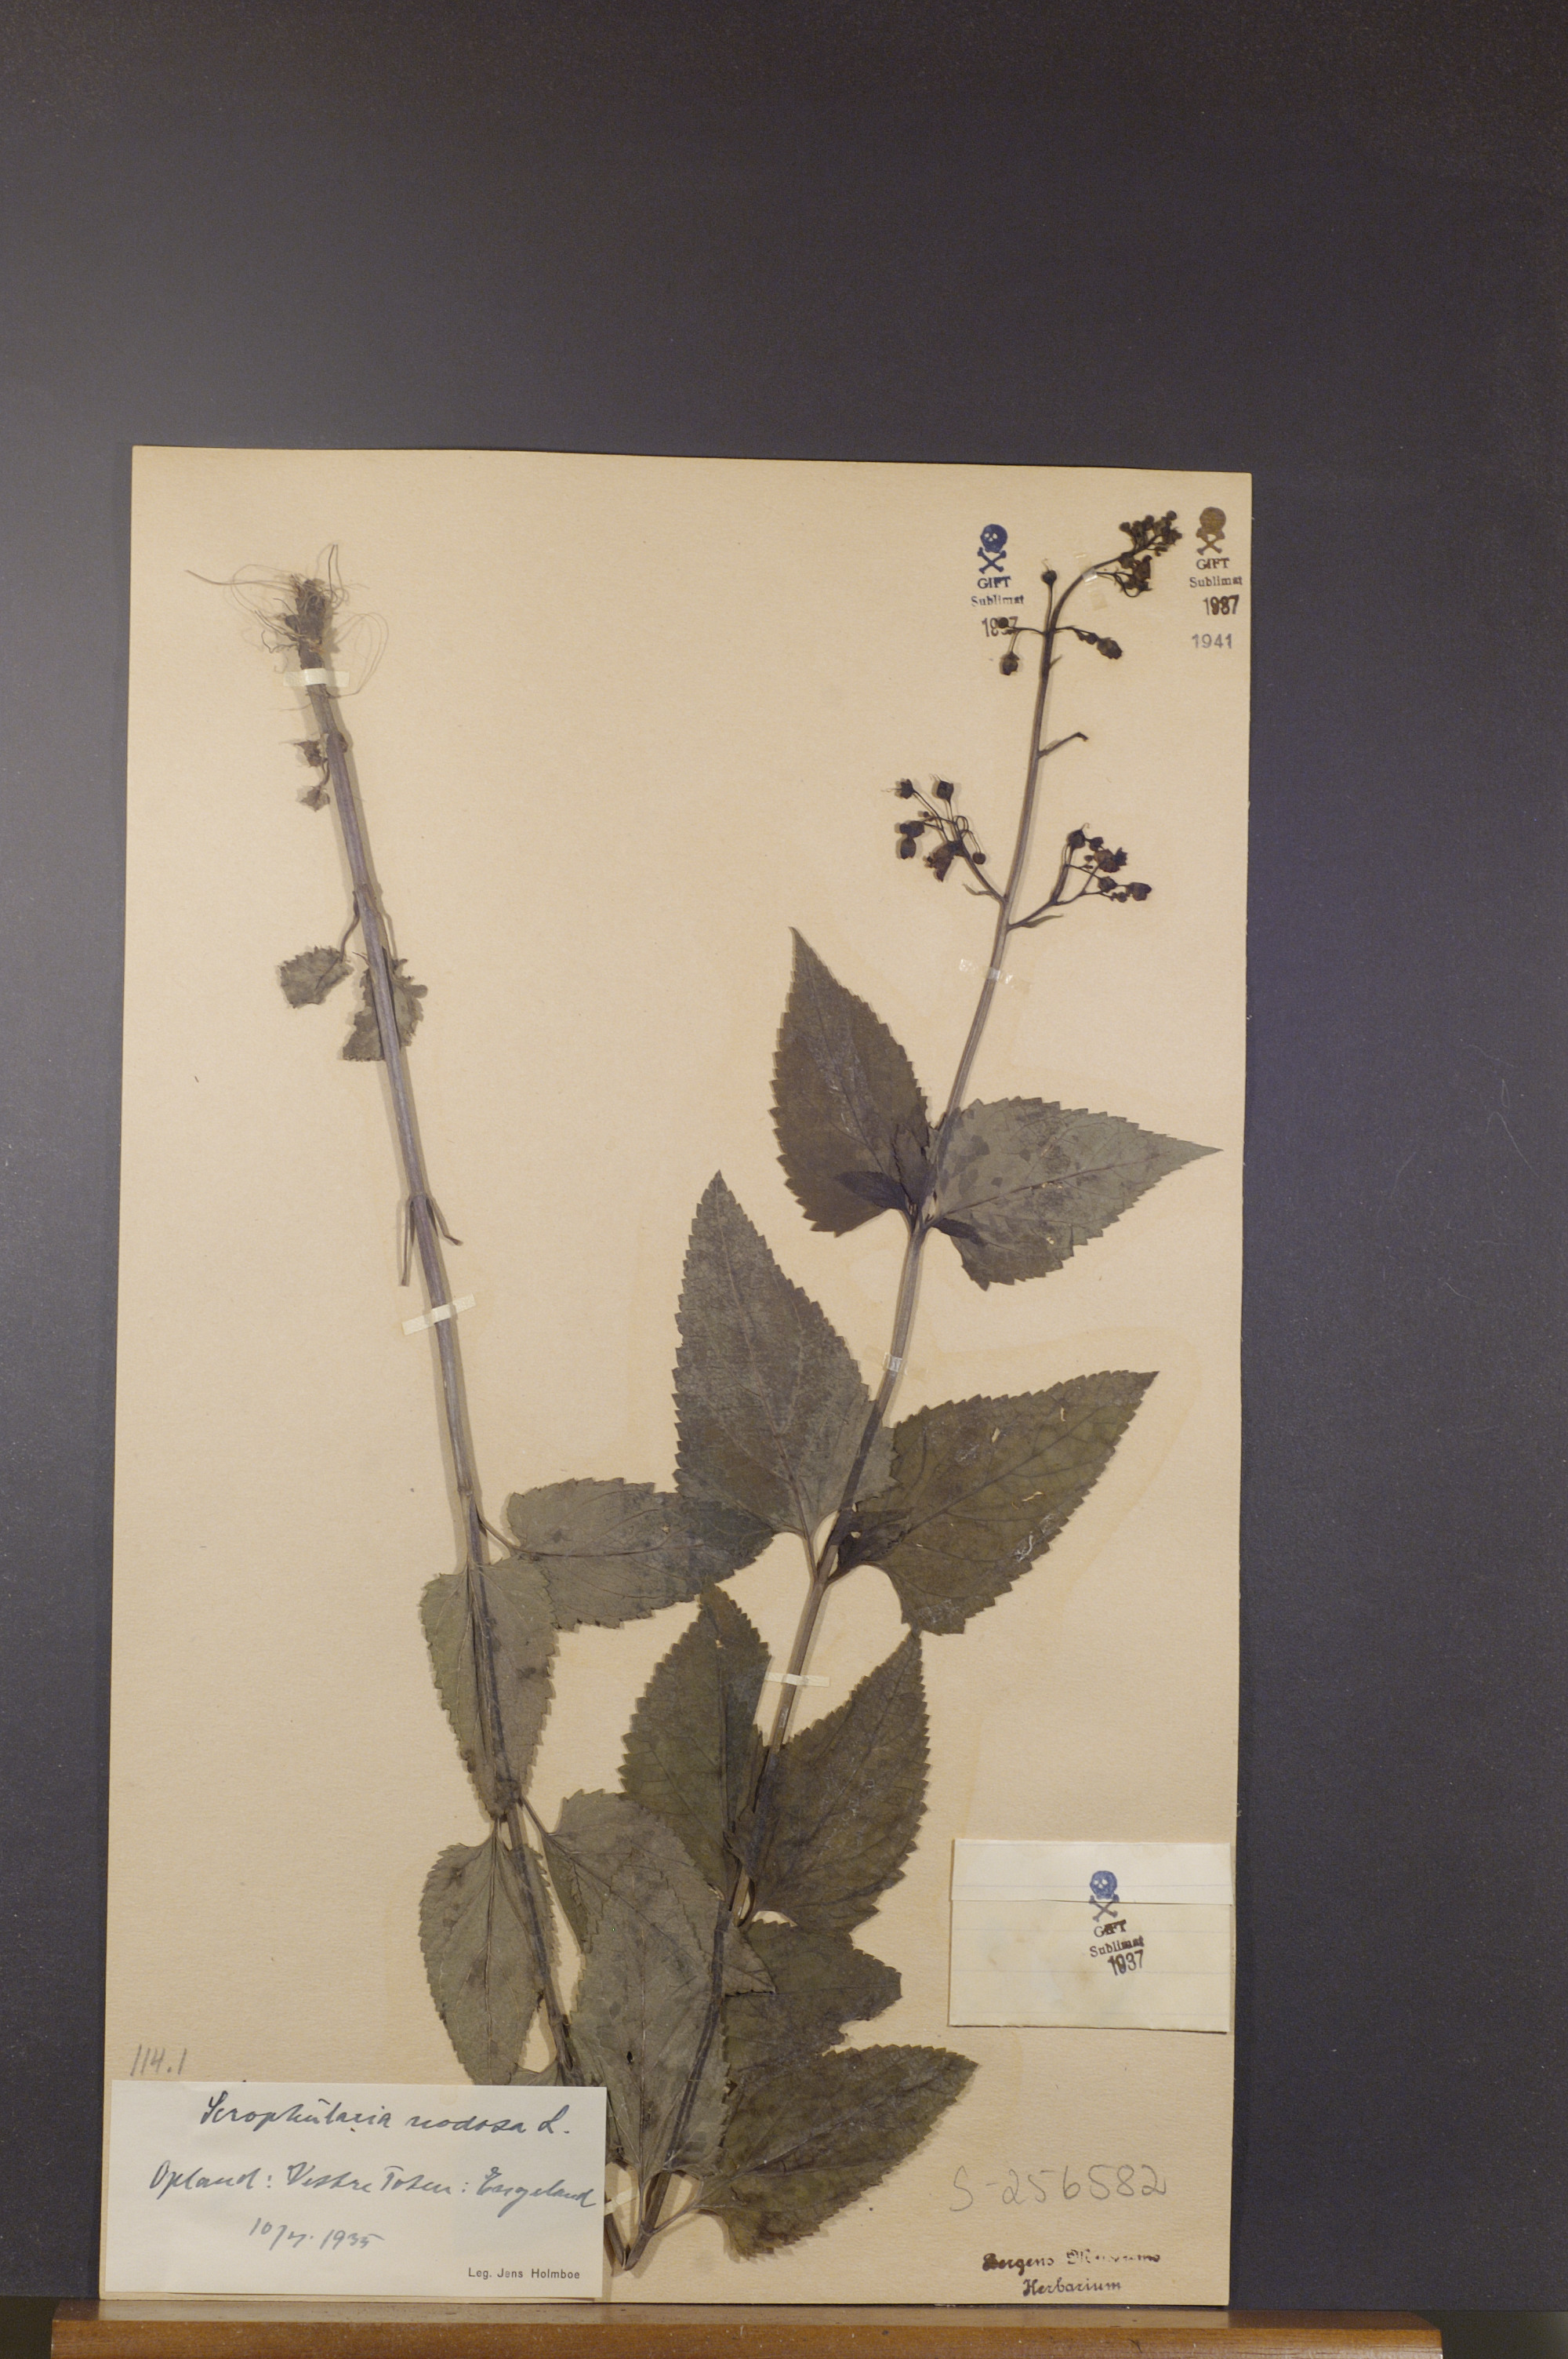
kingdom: Plantae
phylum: Tracheophyta
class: Magnoliopsida
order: Lamiales
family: Scrophulariaceae
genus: Scrophularia
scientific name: Scrophularia nodosa
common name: Common figwort
